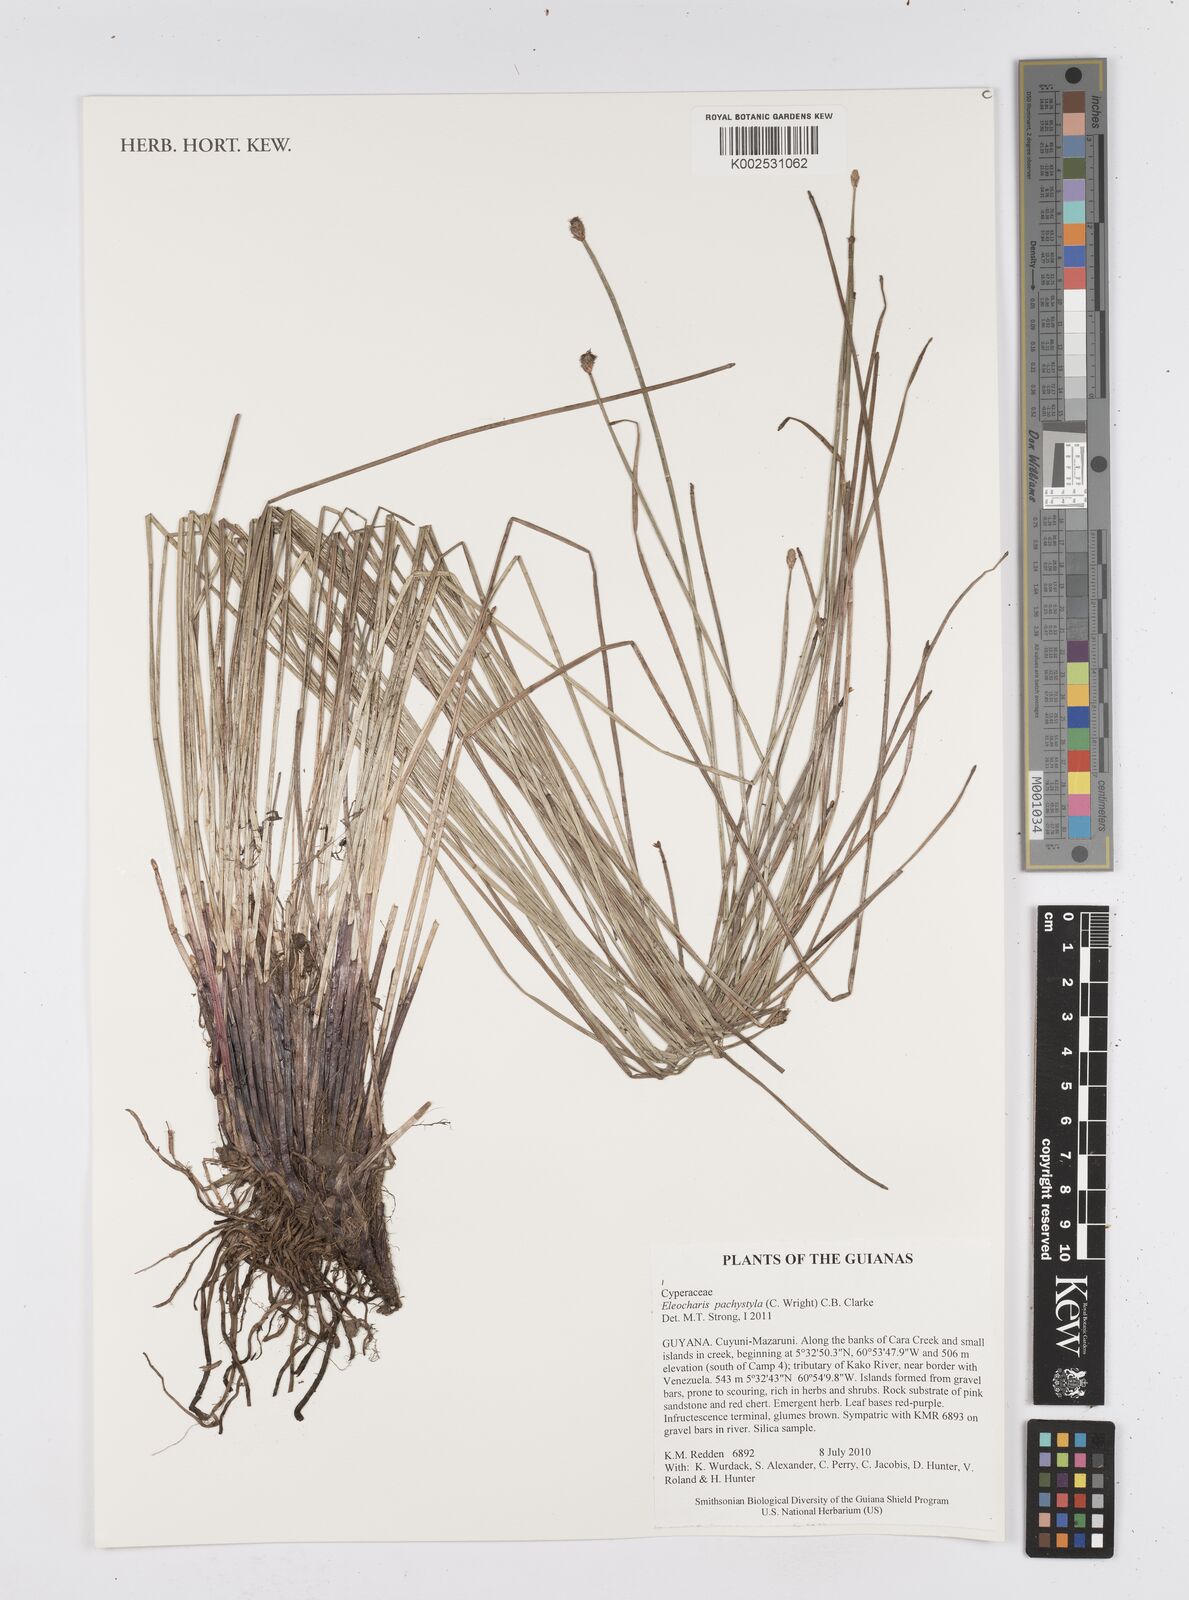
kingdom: Plantae
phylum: Tracheophyta
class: Liliopsida
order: Poales
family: Cyperaceae
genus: Eleocharis
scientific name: Eleocharis pachystyla
